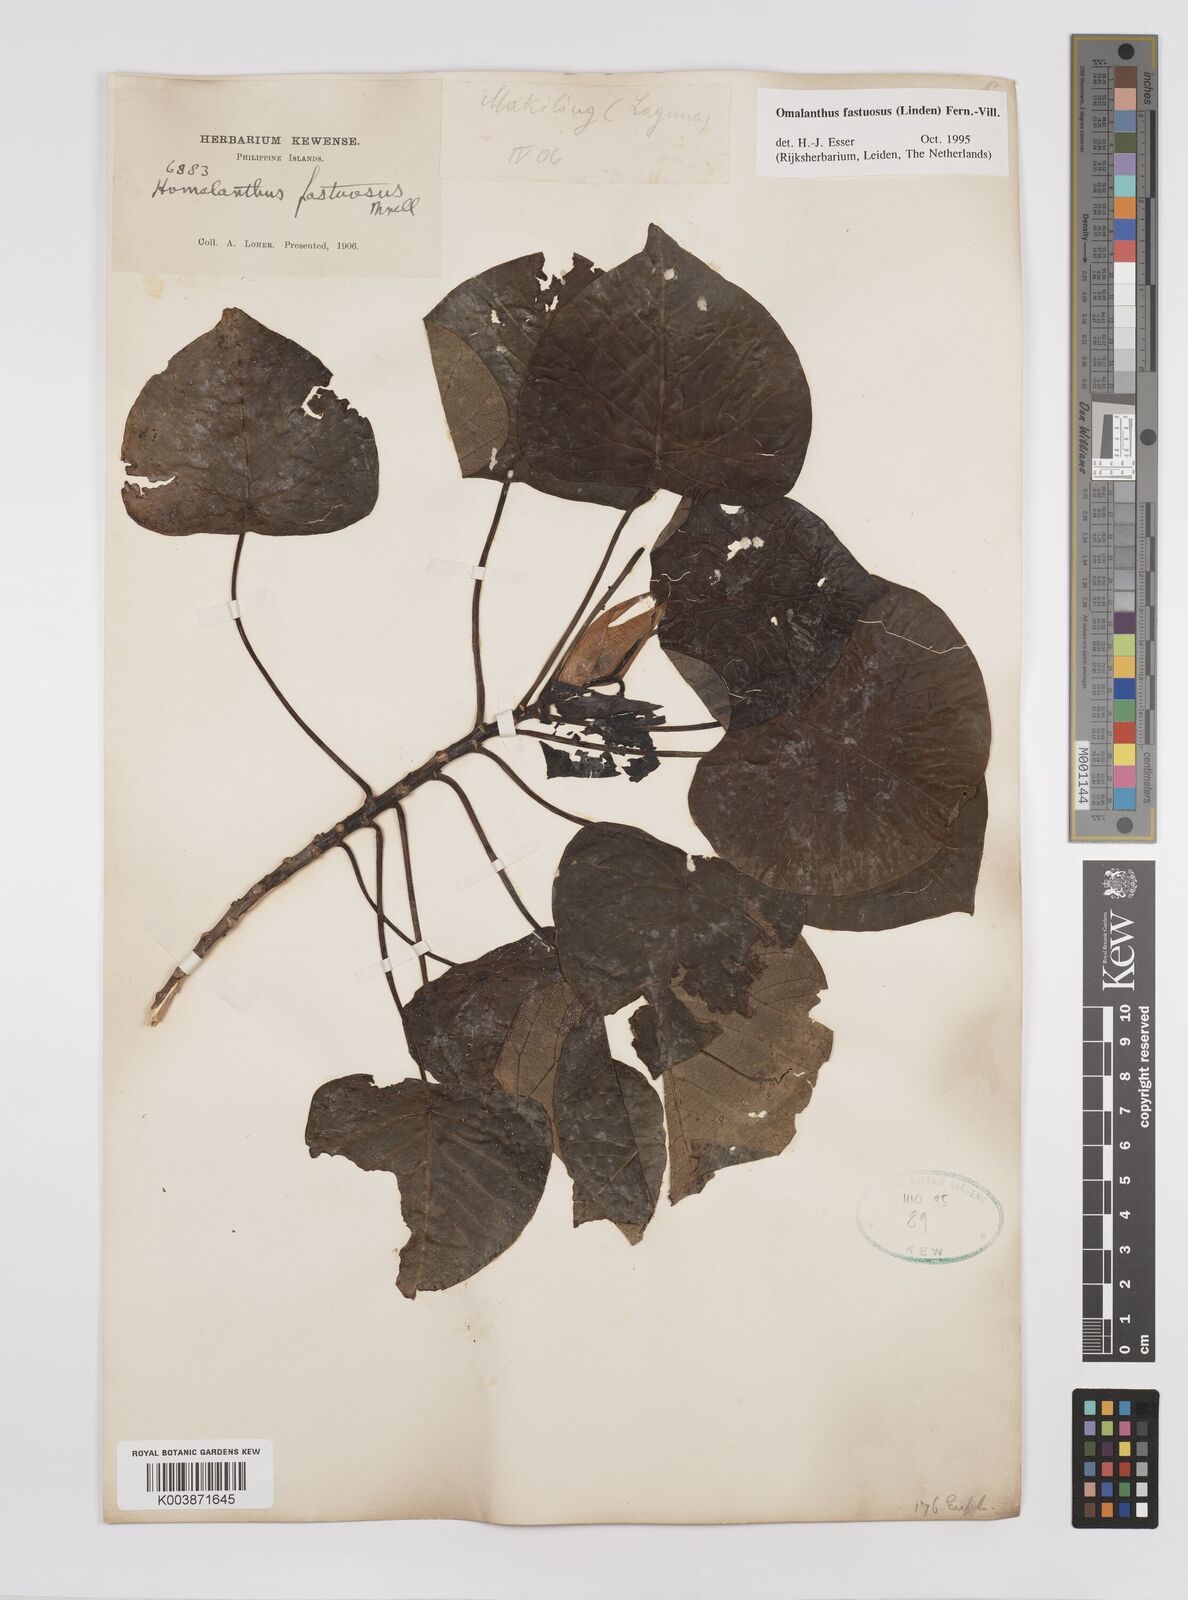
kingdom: Plantae
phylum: Tracheophyta
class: Magnoliopsida
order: Malpighiales
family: Euphorbiaceae
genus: Homalanthus
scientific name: Homalanthus fastuosus
